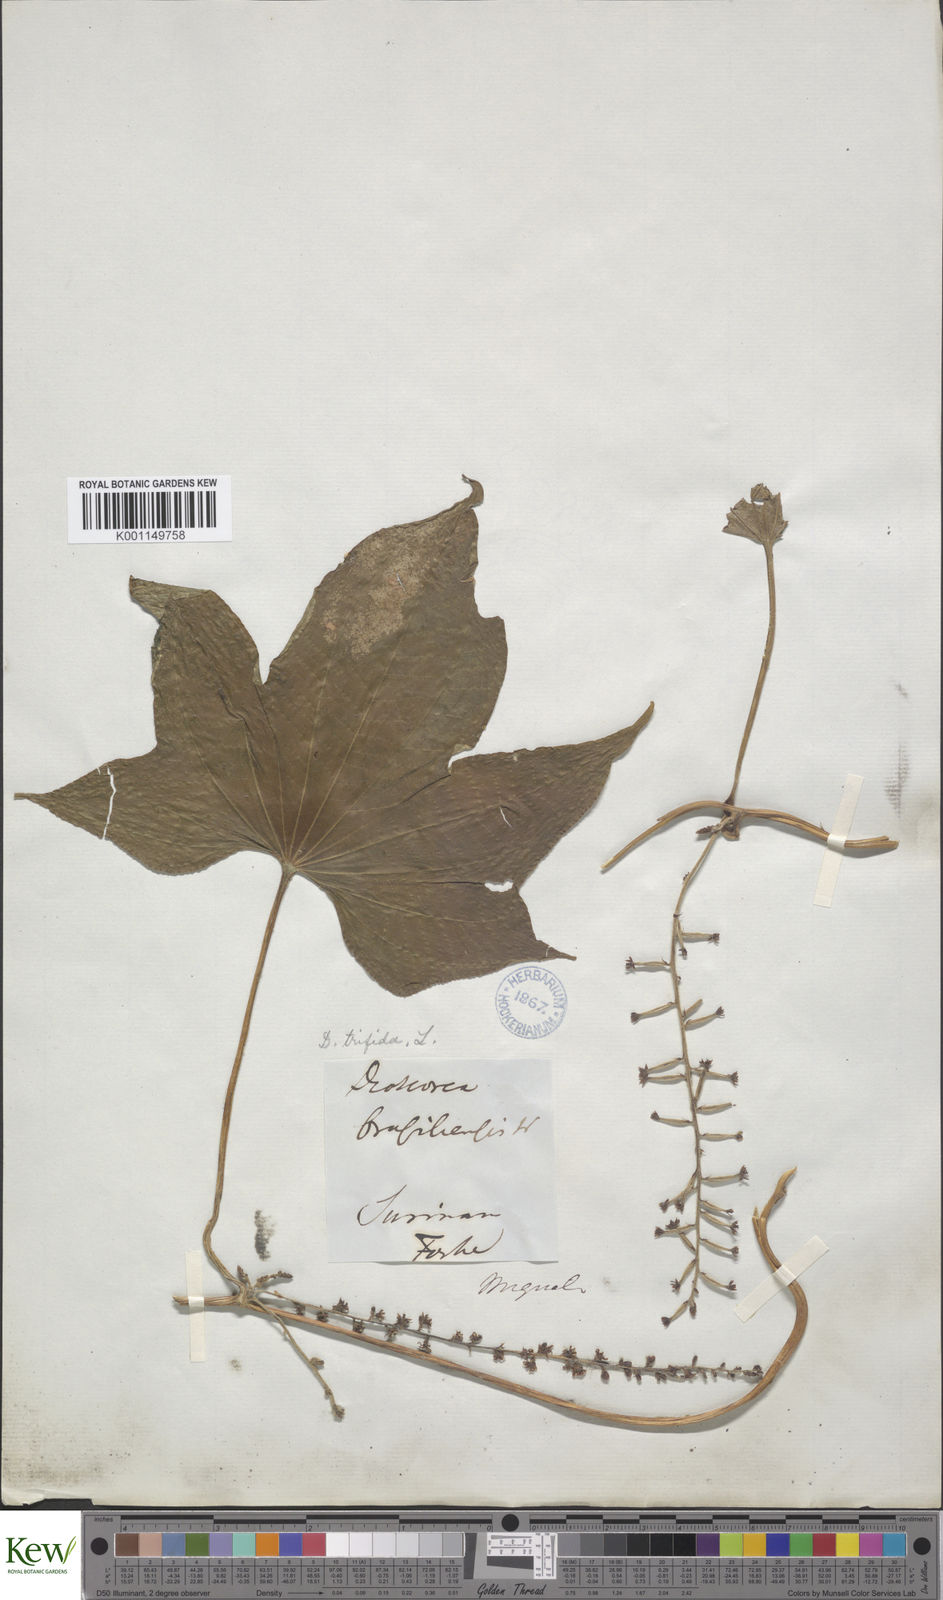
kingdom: Plantae
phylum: Tracheophyta
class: Liliopsida
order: Dioscoreales
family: Dioscoreaceae
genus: Dioscorea
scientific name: Dioscorea trifida
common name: Cush-cush
